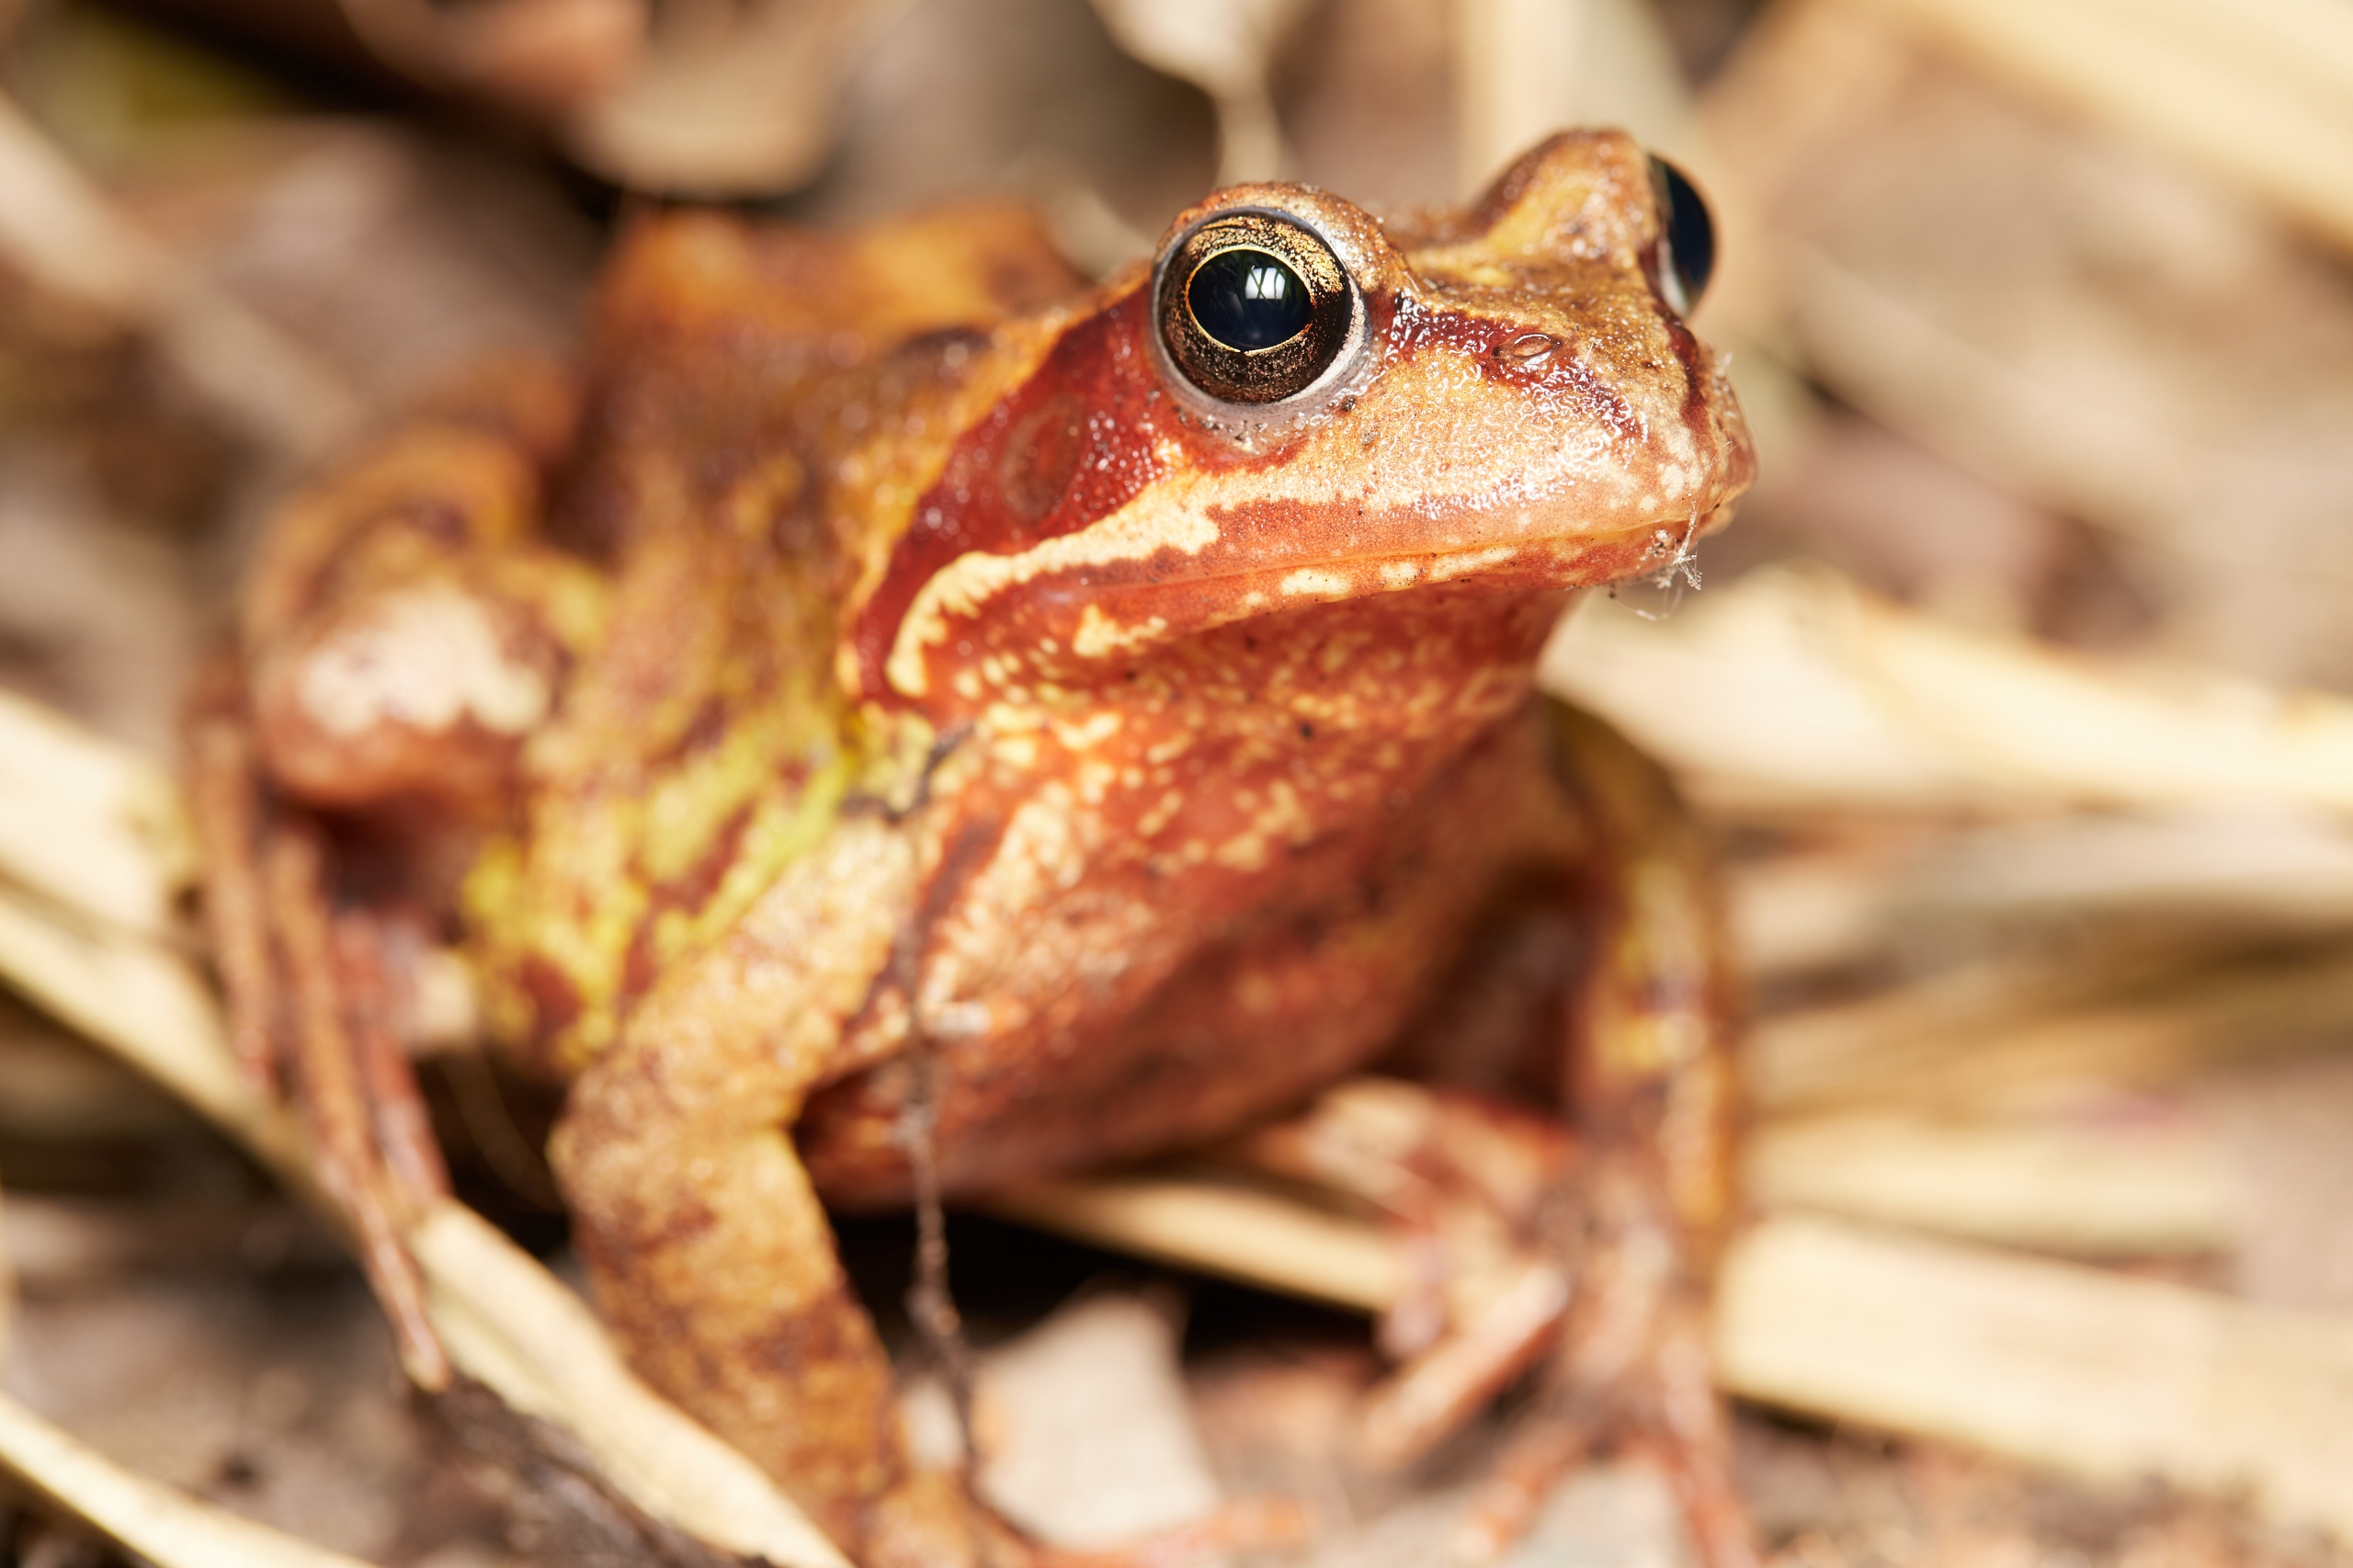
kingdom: Animalia
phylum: Chordata
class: Amphibia
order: Anura
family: Ranidae
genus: Rana
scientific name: Rana temporaria
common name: Butsnudet frø
